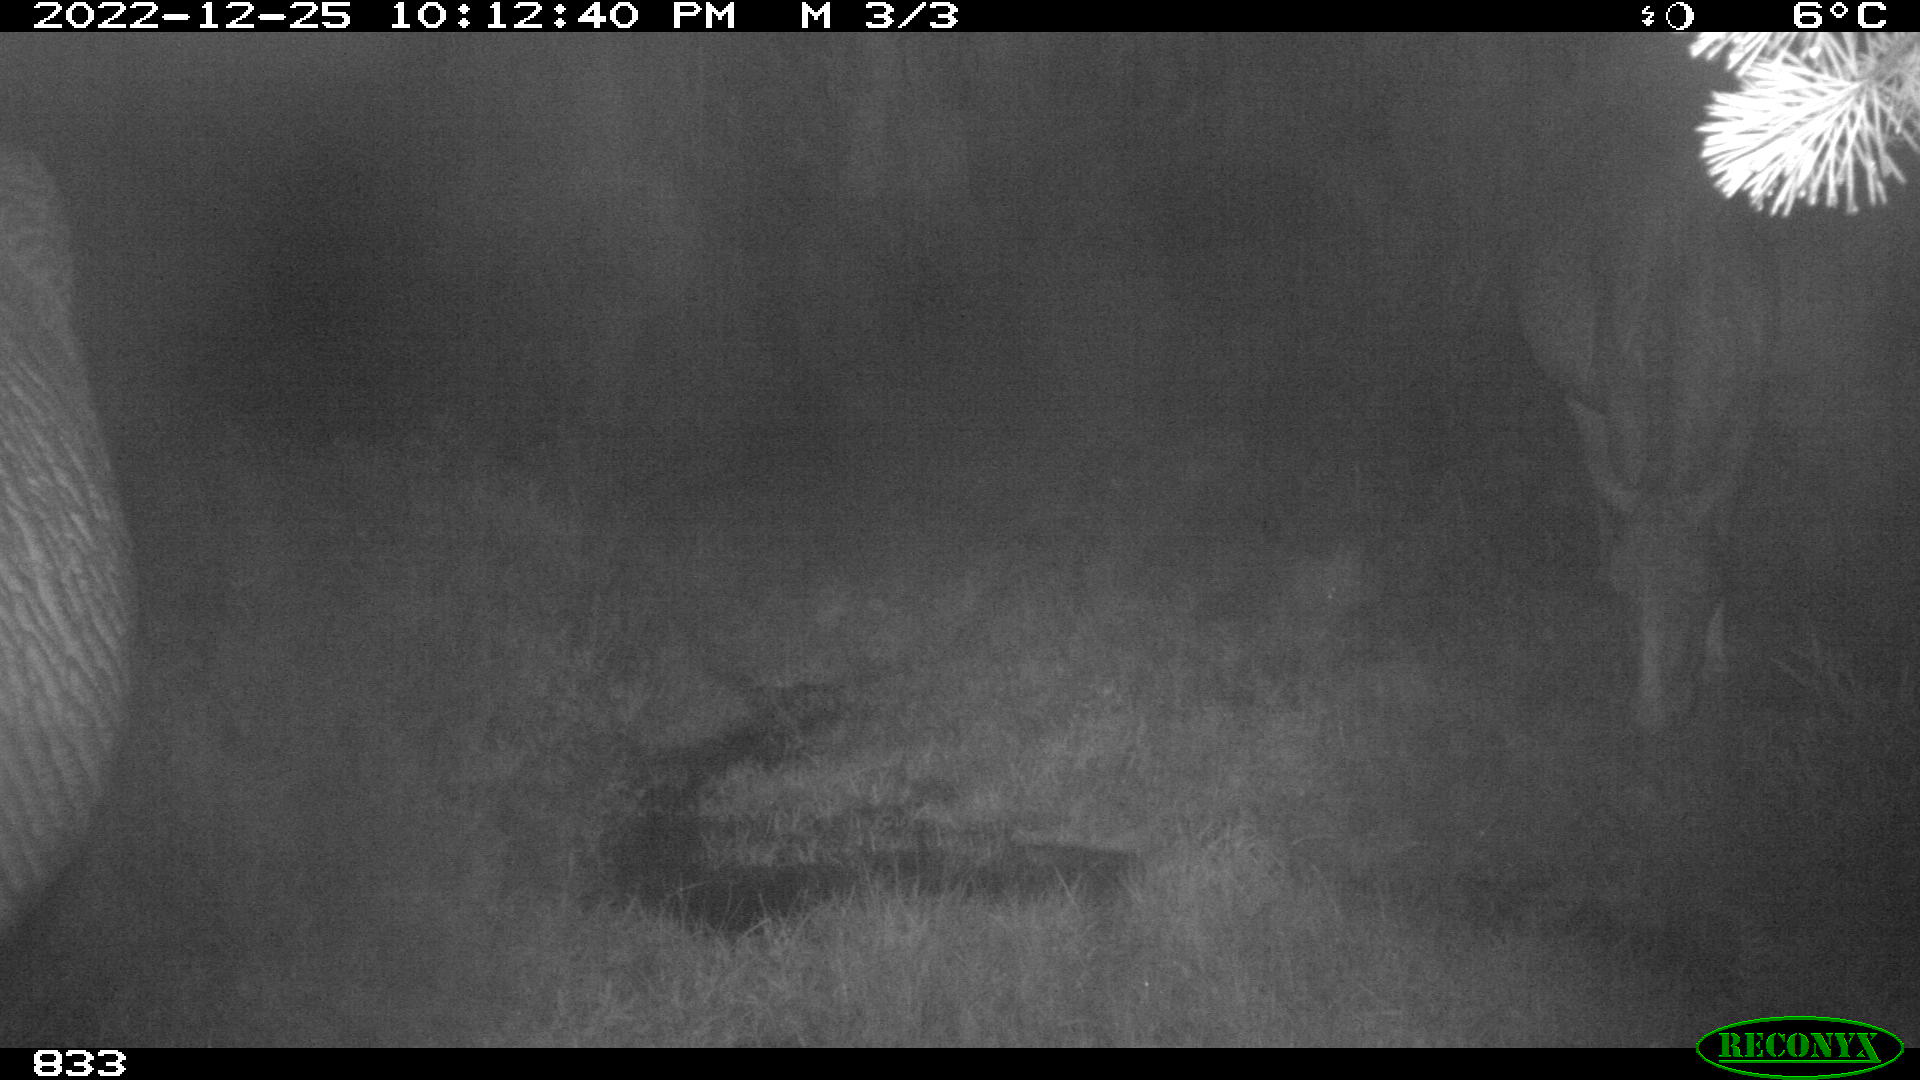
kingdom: Animalia
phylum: Chordata
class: Mammalia
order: Perissodactyla
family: Equidae
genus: Equus
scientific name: Equus caballus
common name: Horse
